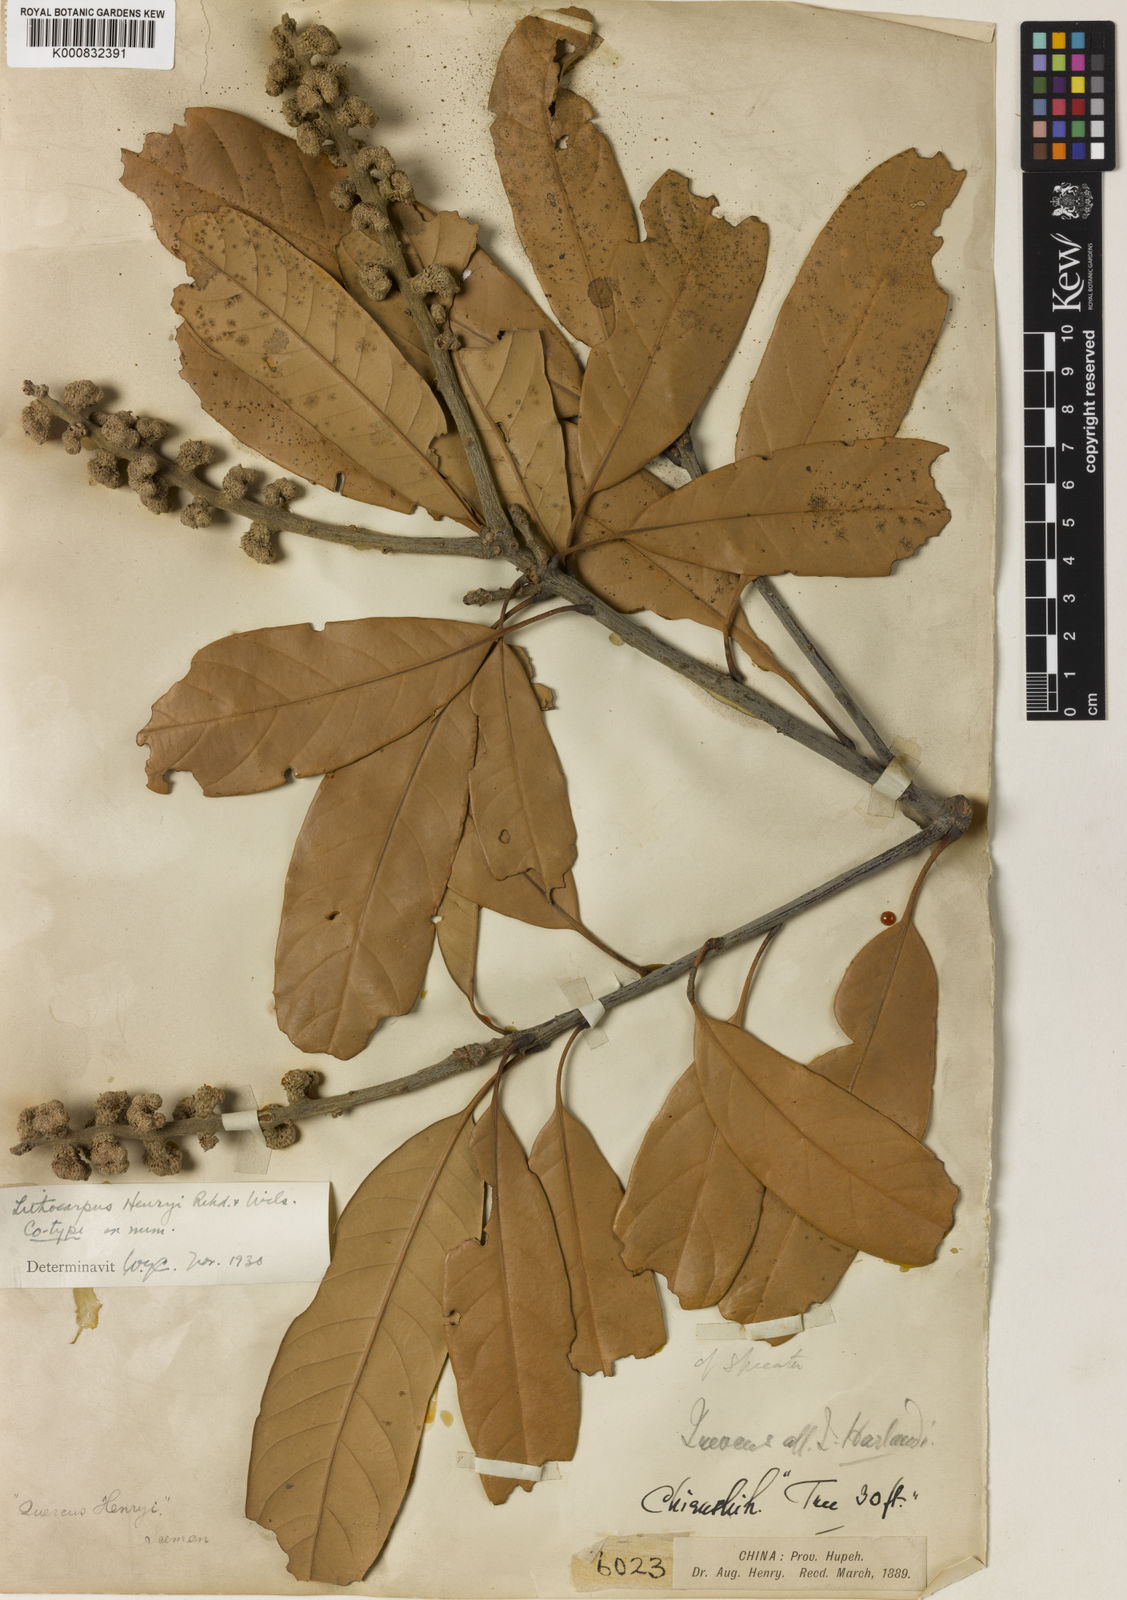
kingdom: Plantae
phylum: Tracheophyta
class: Magnoliopsida
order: Fagales
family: Fagaceae
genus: Lithocarpus
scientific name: Lithocarpus henryi
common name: Henry tanbark oak
